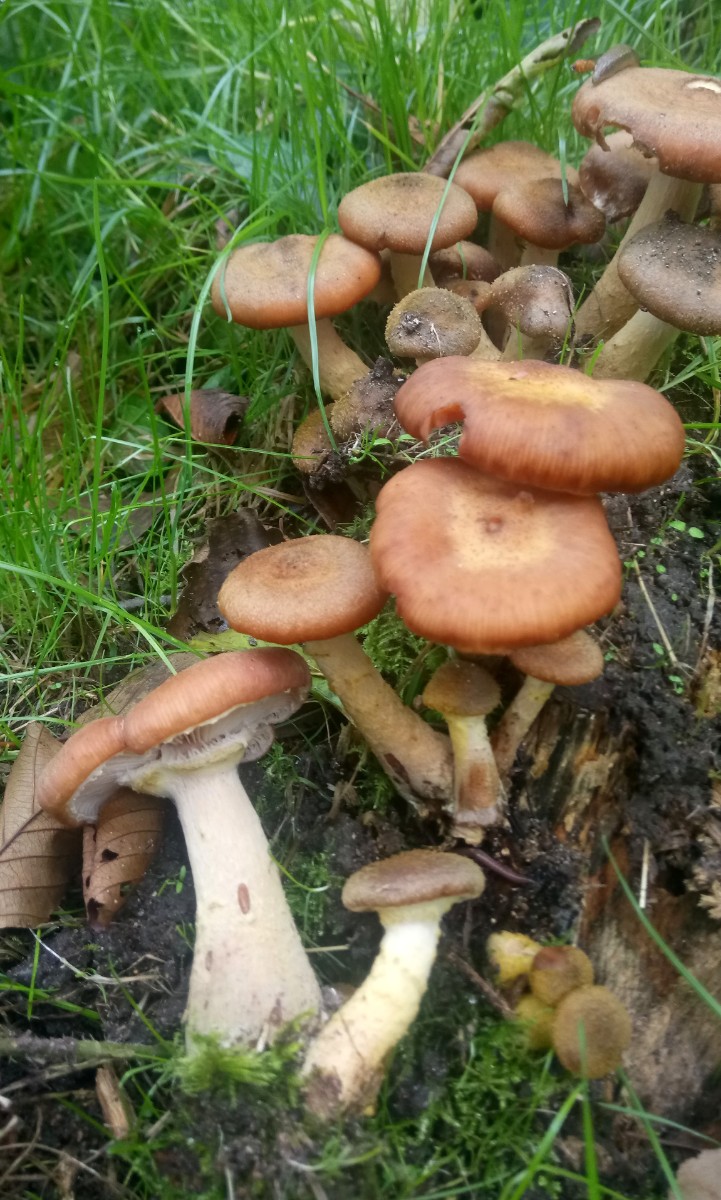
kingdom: Fungi
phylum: Basidiomycota
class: Agaricomycetes
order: Agaricales
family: Physalacriaceae
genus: Armillaria
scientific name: Armillaria lutea
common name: køllestokket honningsvamp
